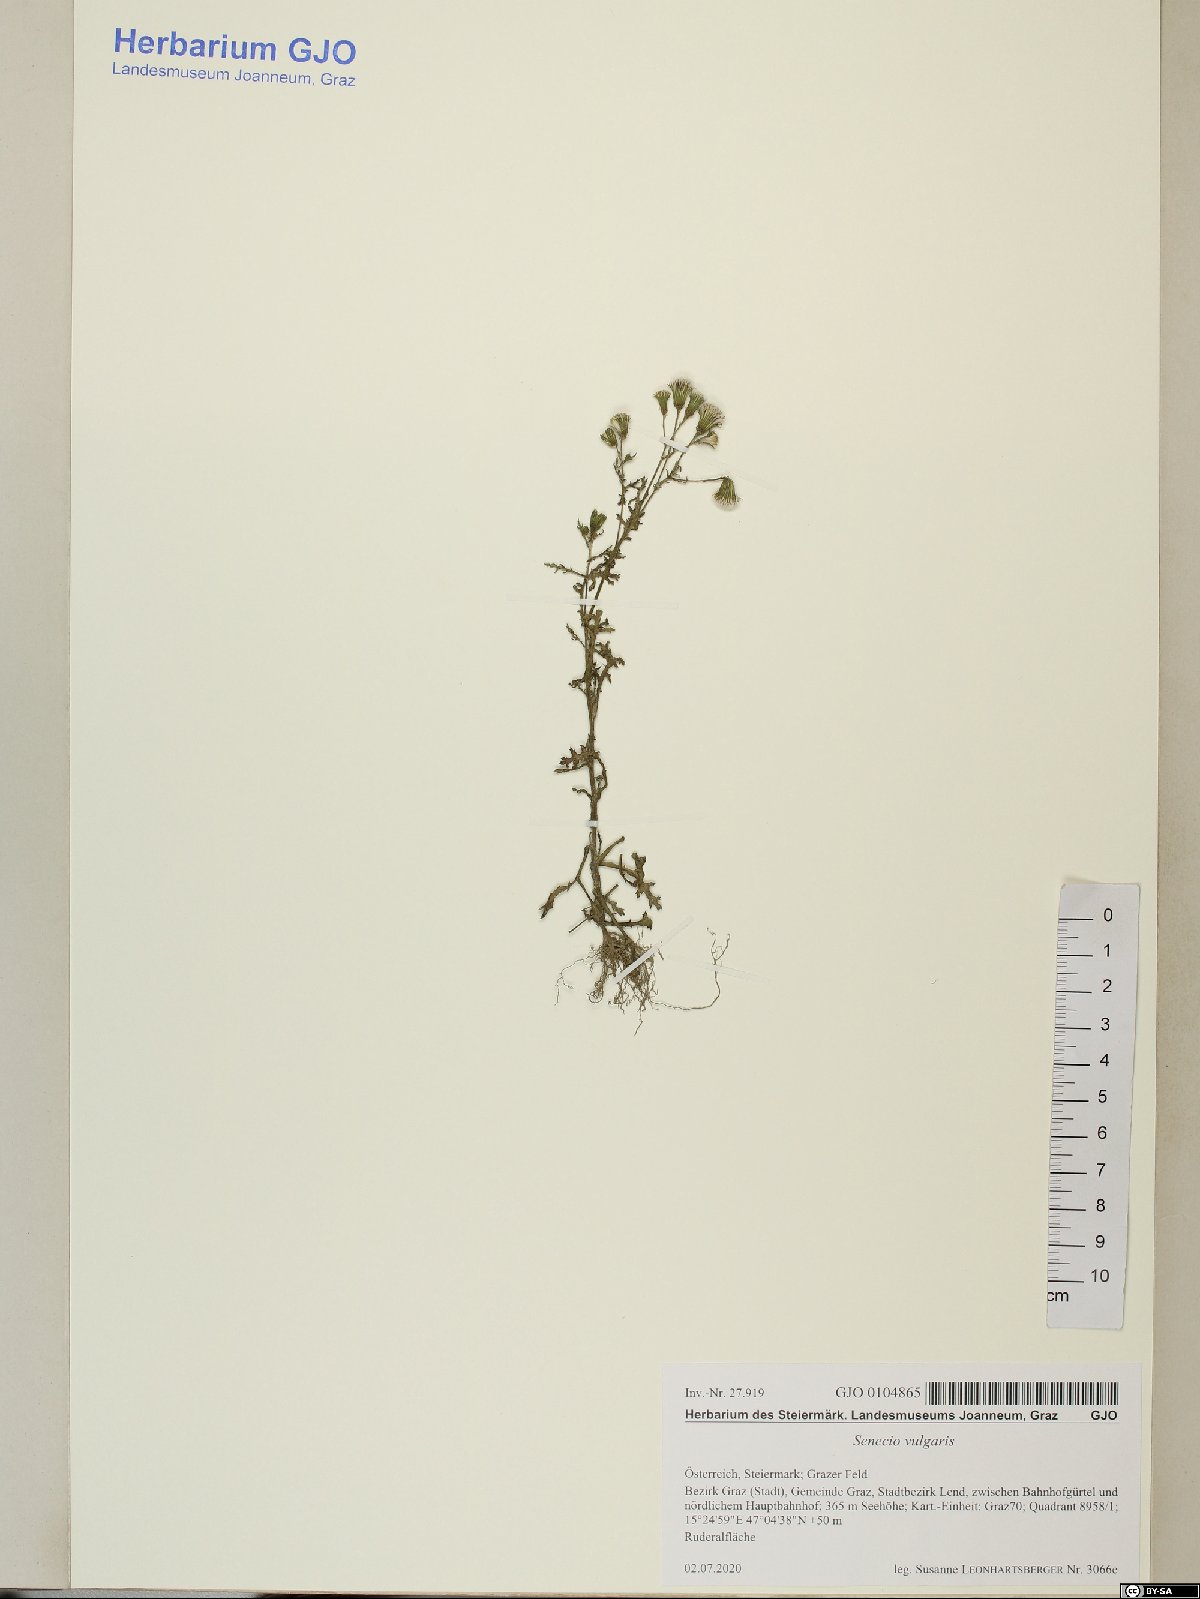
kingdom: Plantae
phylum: Tracheophyta
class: Magnoliopsida
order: Asterales
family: Asteraceae
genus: Senecio
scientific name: Senecio vulgaris
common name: Old-man-in-the-spring
